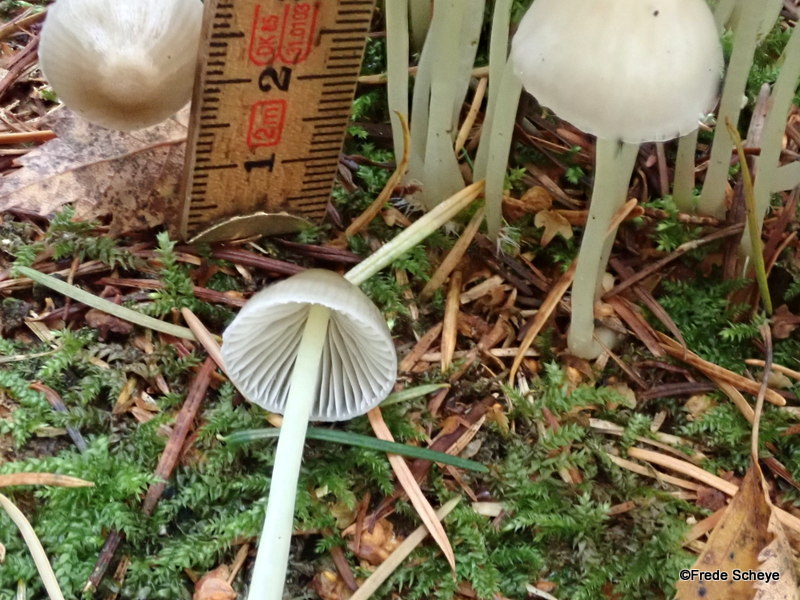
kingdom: Fungi
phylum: Basidiomycota
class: Agaricomycetes
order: Agaricales
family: Mycenaceae
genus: Mycena
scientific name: Mycena epipterygia
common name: gulstokket huesvamp
